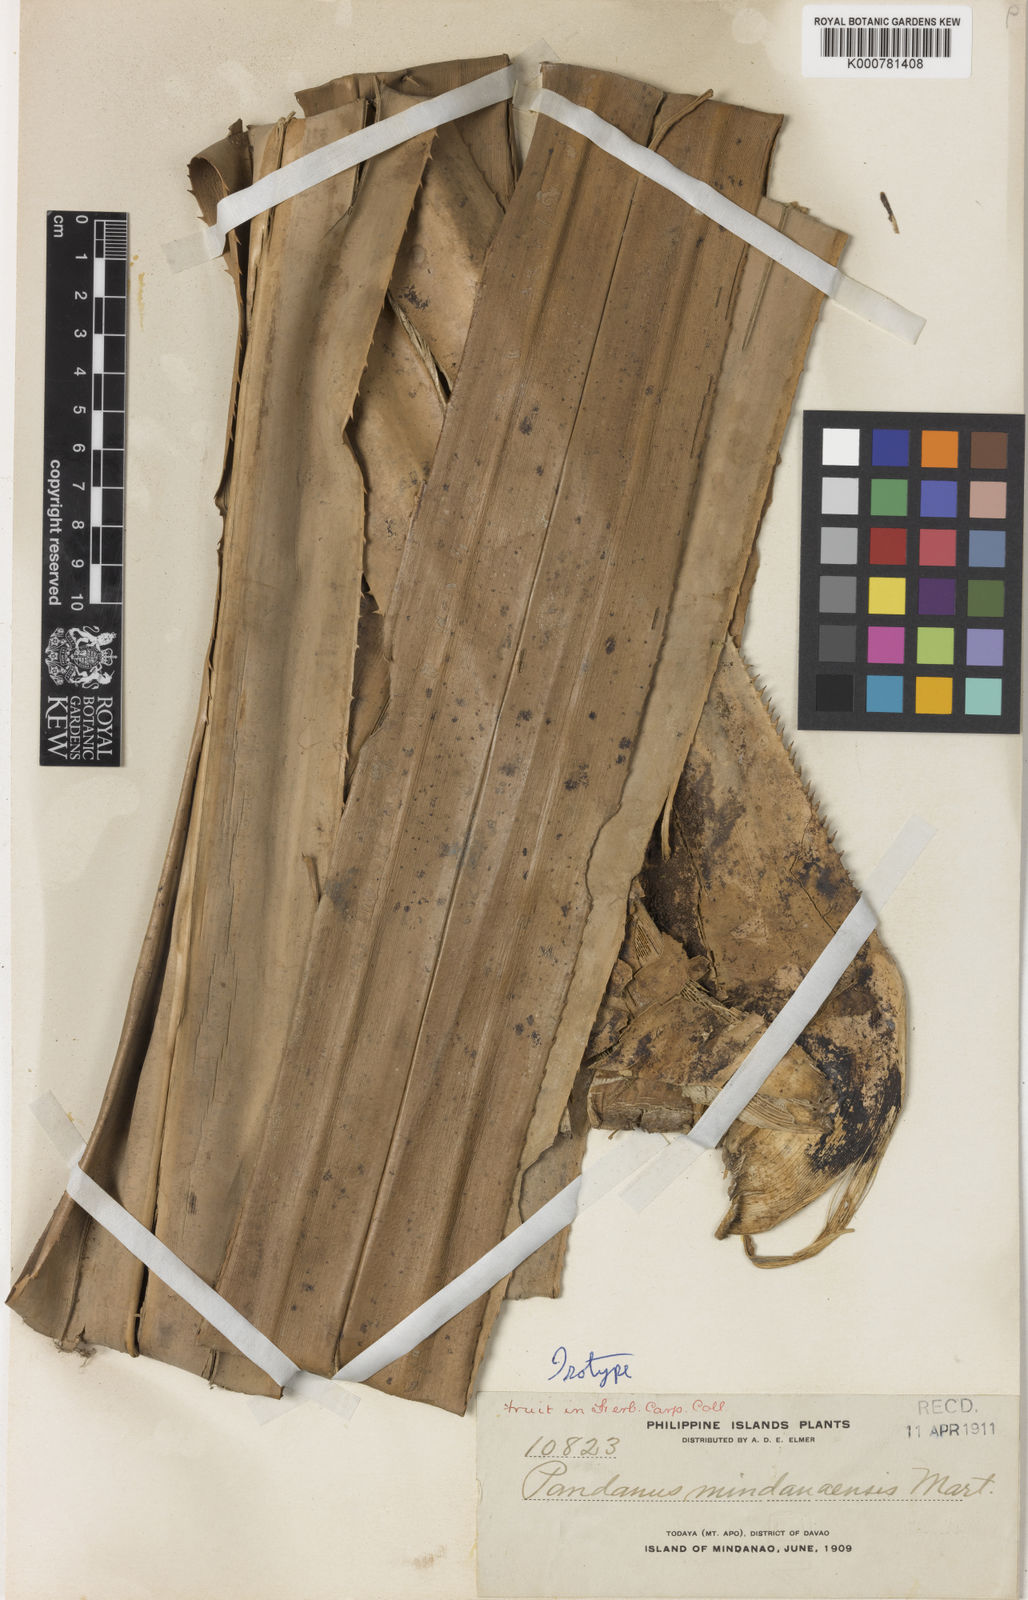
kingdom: Plantae
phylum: Tracheophyta
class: Liliopsida
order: Pandanales
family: Pandanaceae
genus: Pandanus
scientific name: Pandanus mindanaensis
